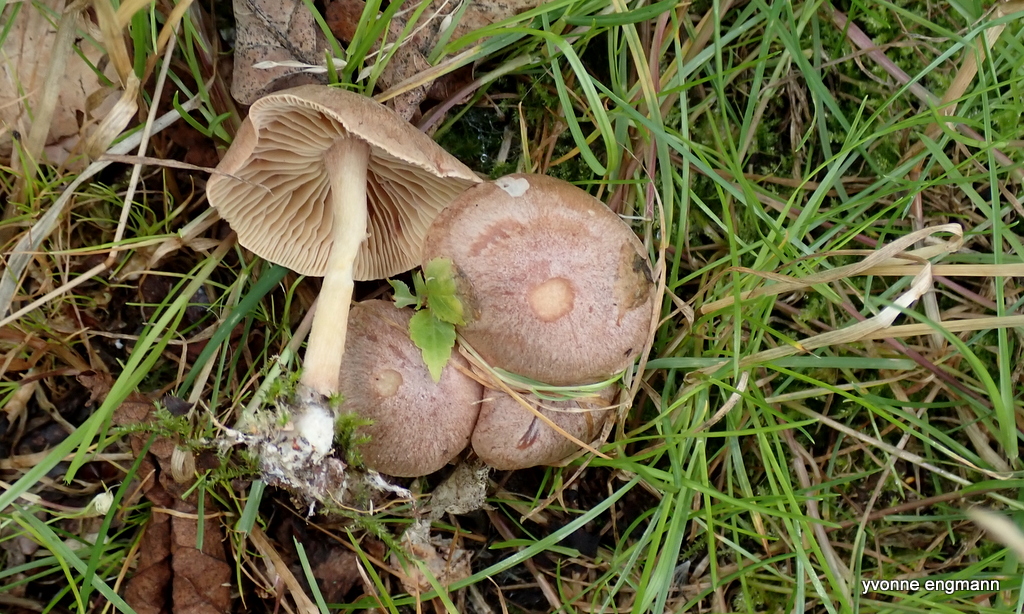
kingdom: Fungi
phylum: Basidiomycota
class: Agaricomycetes
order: Agaricales
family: Omphalotaceae
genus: Collybiopsis
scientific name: Collybiopsis peronata
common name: bestøvlet fladhat
